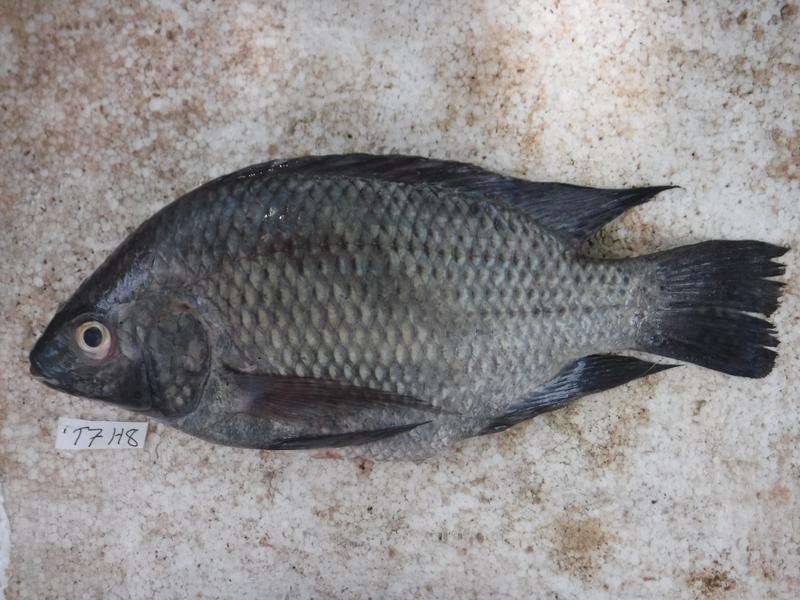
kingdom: Animalia
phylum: Chordata
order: Perciformes
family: Cichlidae
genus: Oreochromis
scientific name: Oreochromis niloticus
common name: Nile tilapia
